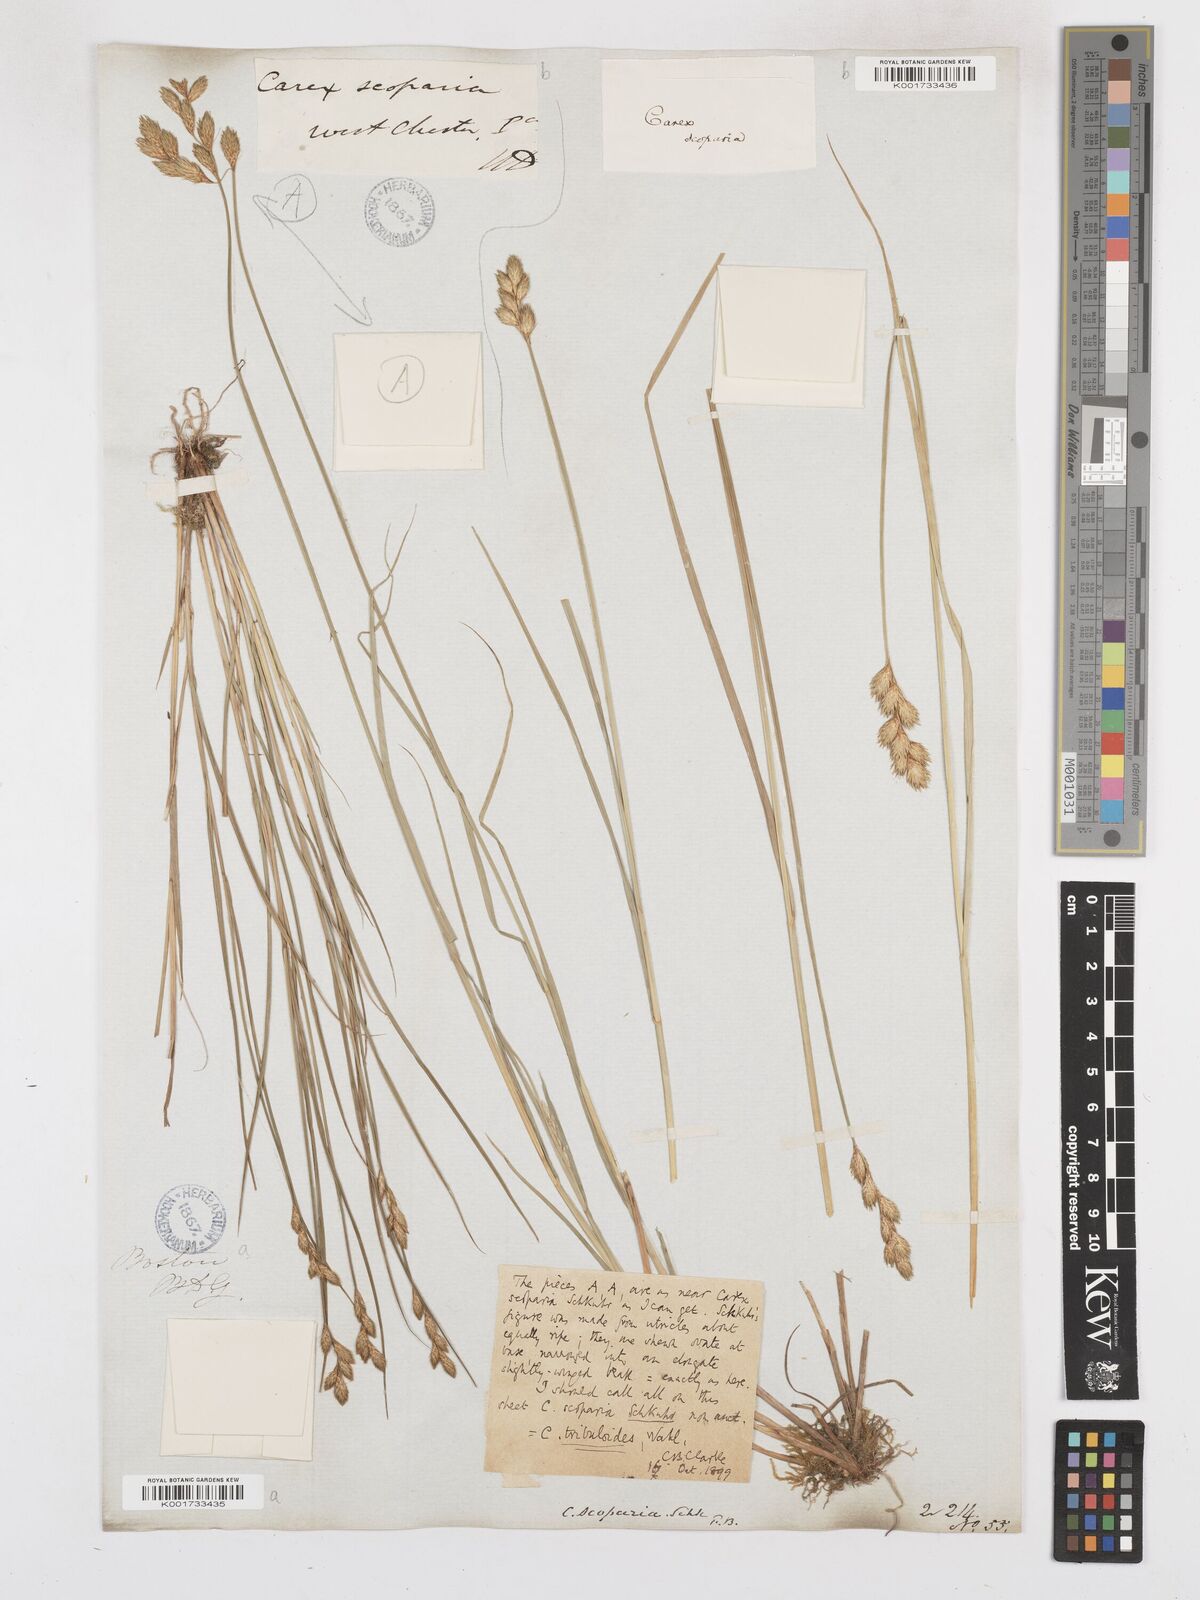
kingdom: Plantae
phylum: Tracheophyta
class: Liliopsida
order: Poales
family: Cyperaceae
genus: Carex
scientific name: Carex tribuloides
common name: Blunt broom sedge
